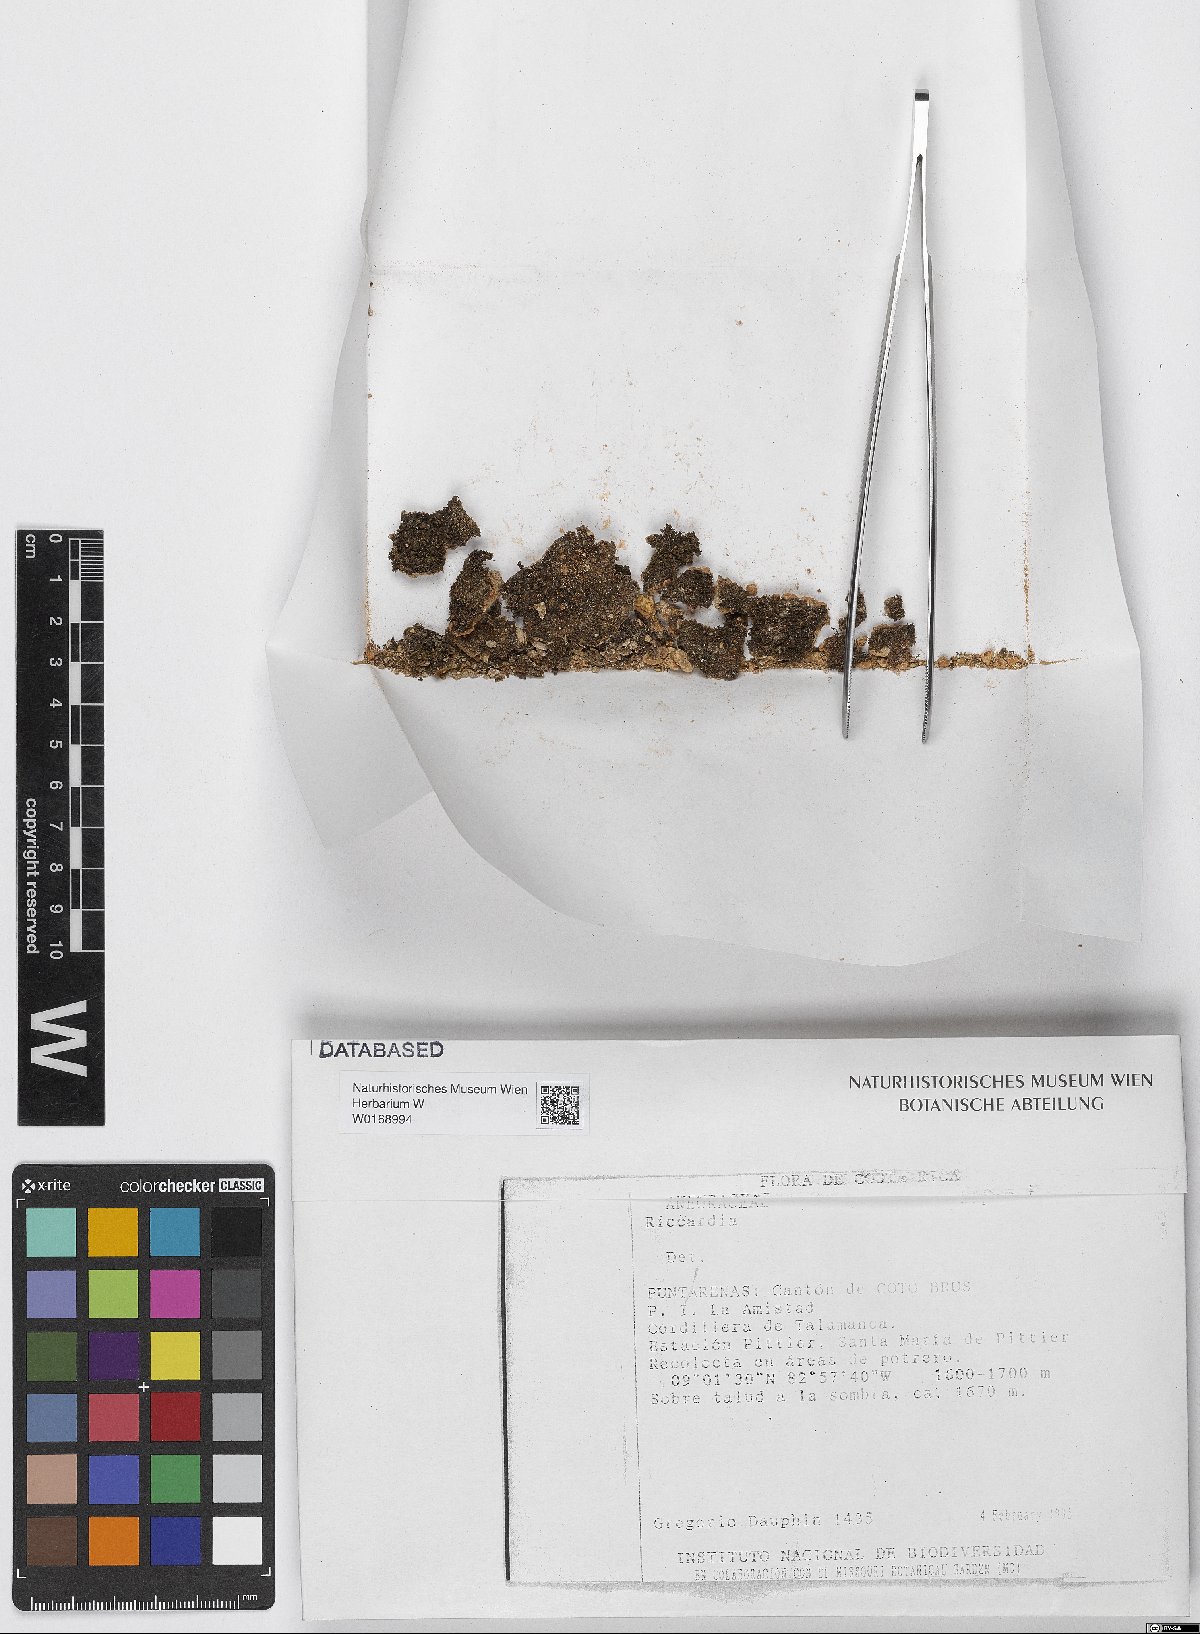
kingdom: Plantae
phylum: Marchantiophyta
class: Jungermanniopsida
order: Metzgeriales
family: Aneuraceae
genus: Riccardia
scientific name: Riccardia
